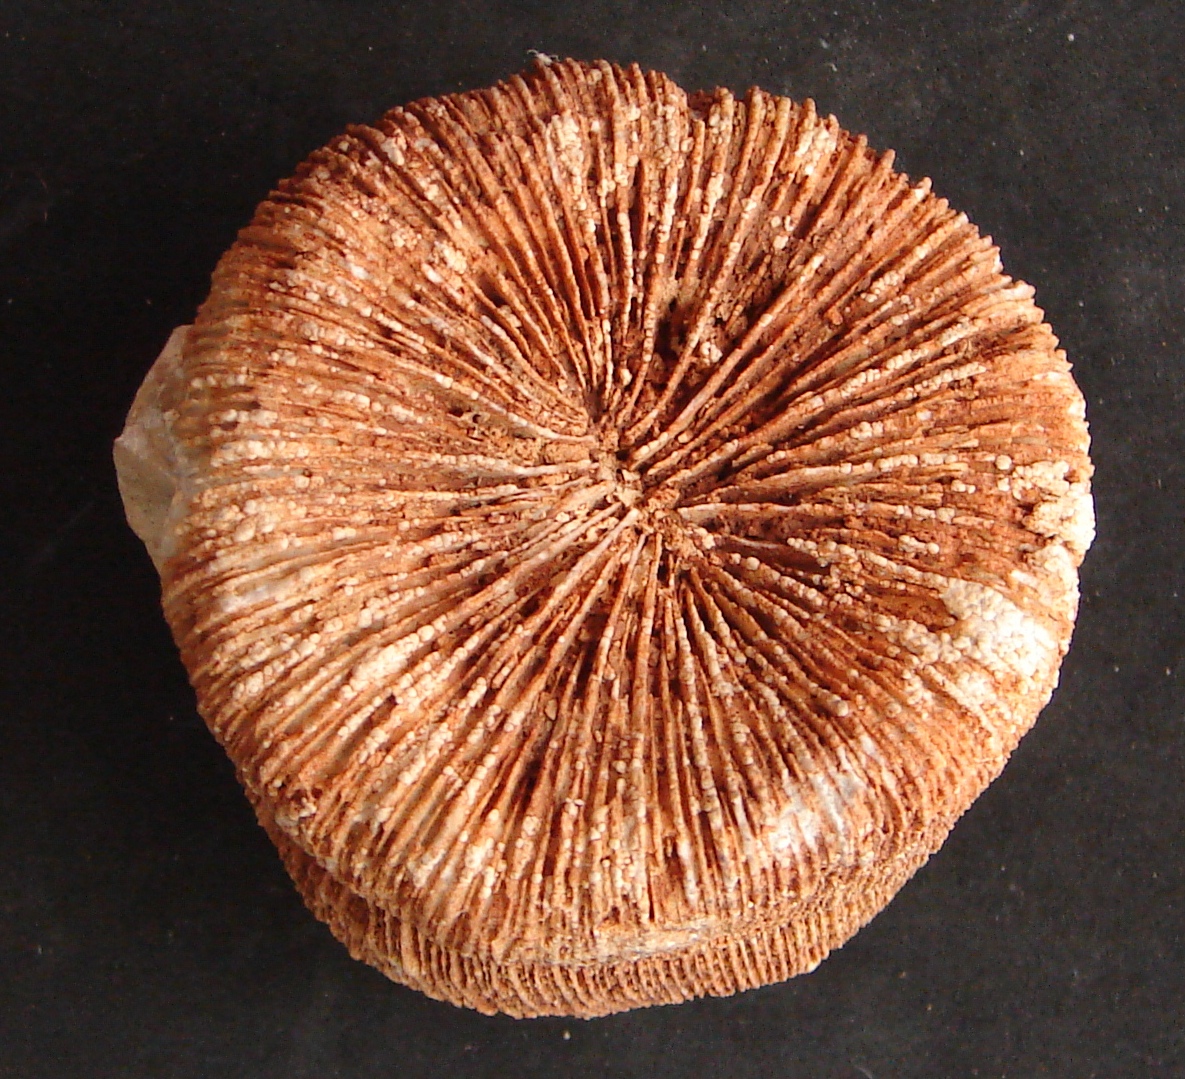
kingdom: Animalia
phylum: Cnidaria
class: Anthozoa
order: Scleractinia
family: Thecosmiliidae
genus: Montlivaltia
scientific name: Montlivaltia Montlivaultia obconica
